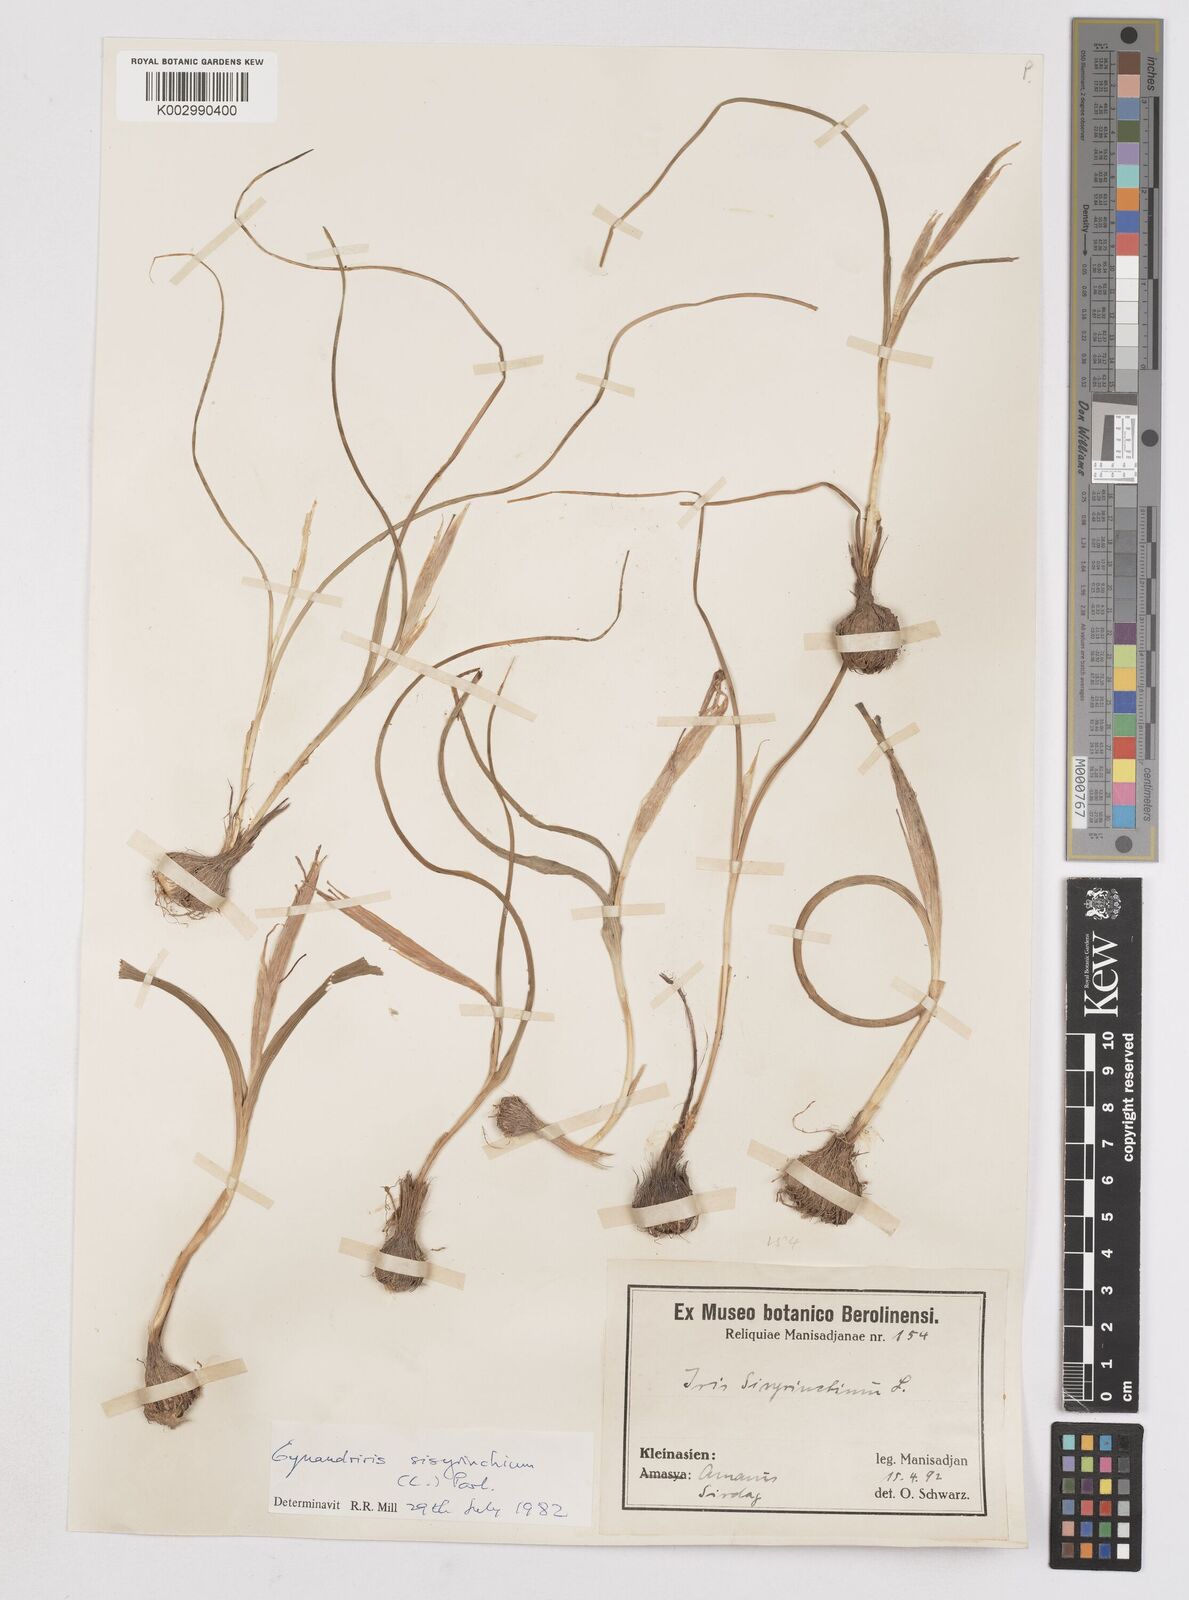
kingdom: Plantae
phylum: Tracheophyta
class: Liliopsida
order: Asparagales
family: Iridaceae
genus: Moraea
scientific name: Moraea sisyrinchium
